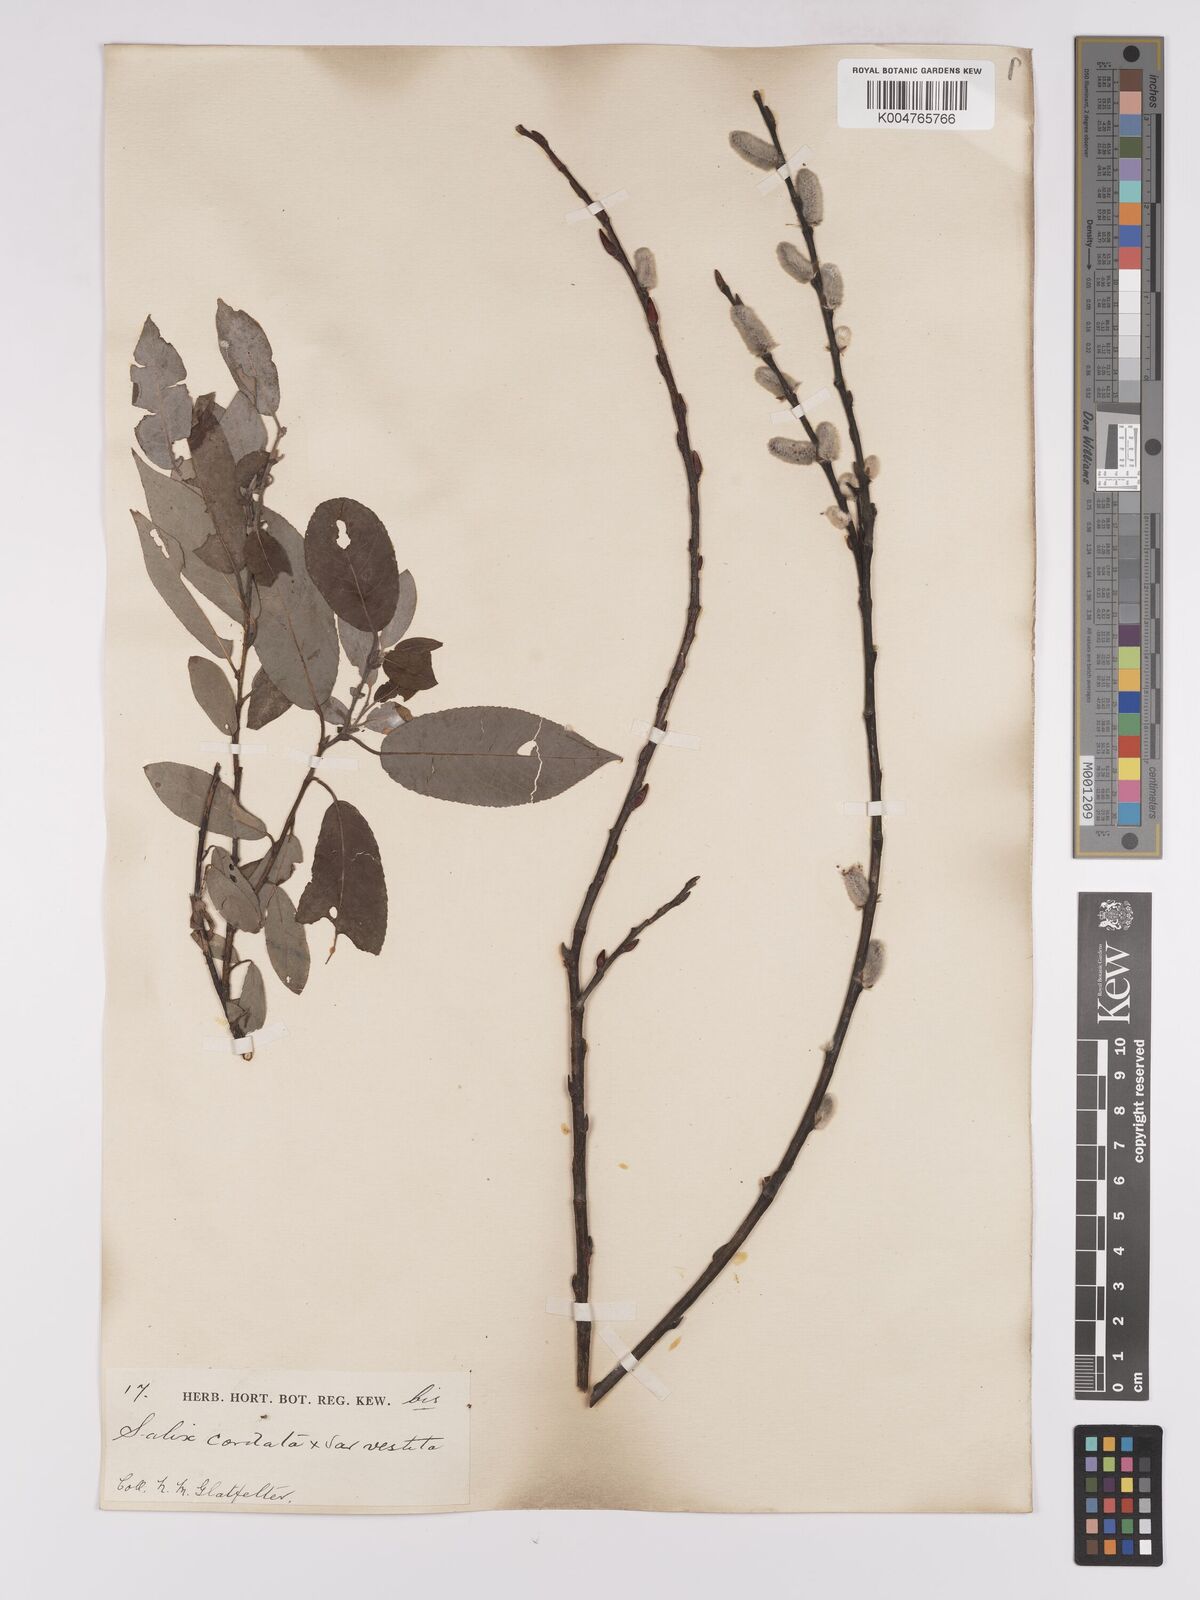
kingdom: Plantae
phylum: Tracheophyta
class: Magnoliopsida
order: Malpighiales
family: Salicaceae
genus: Salix
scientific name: Salix cordata
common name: Heart-leaf willow
